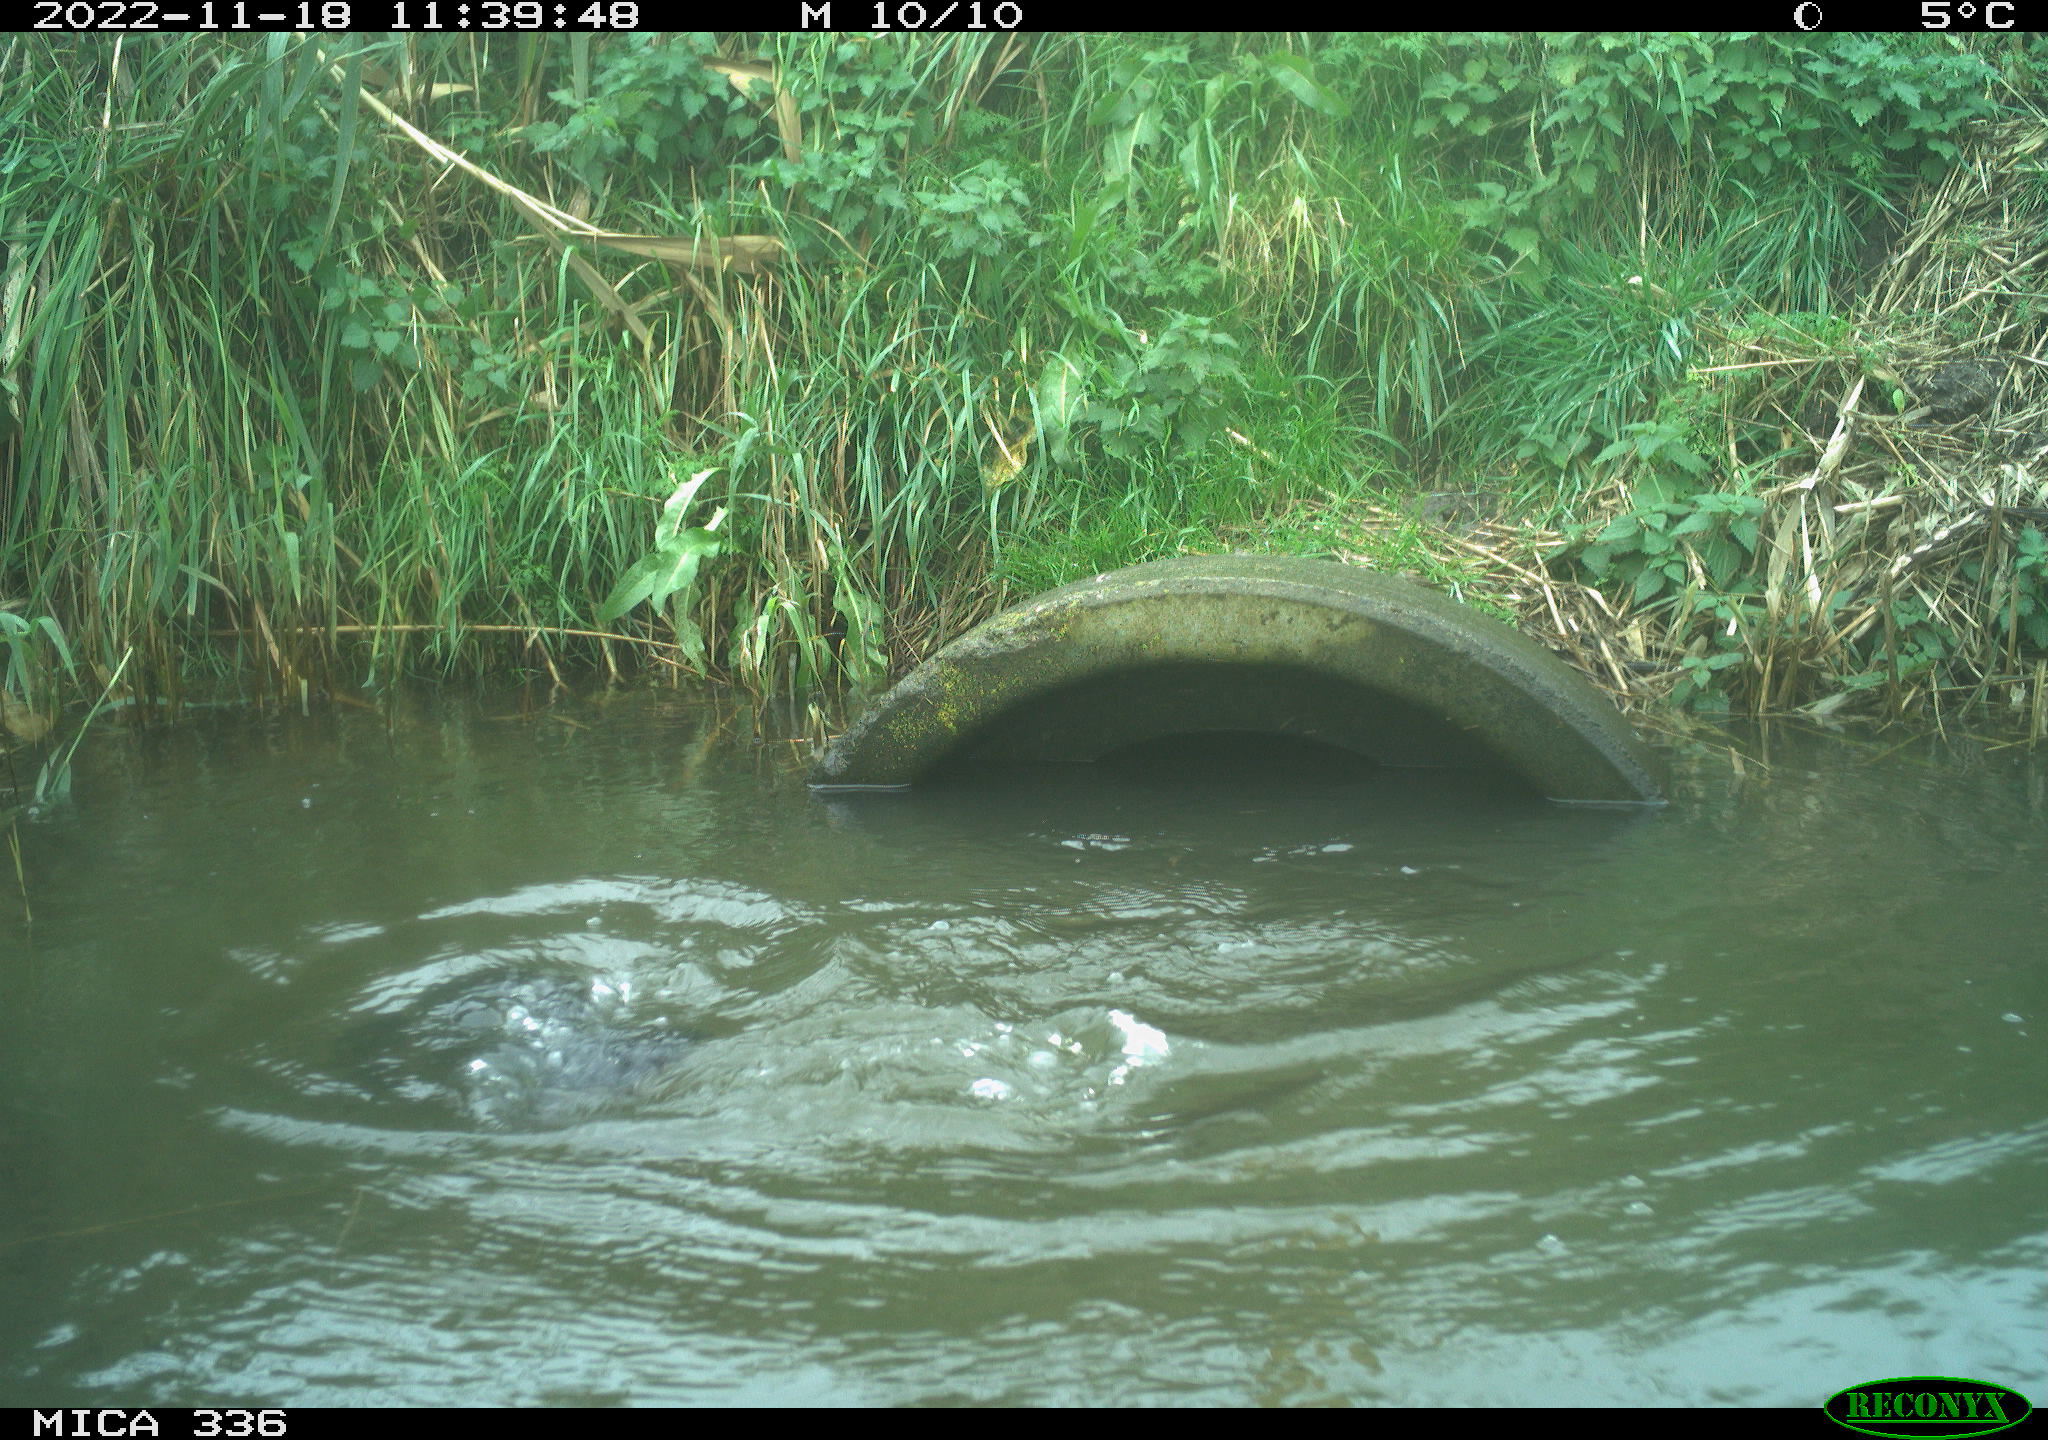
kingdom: Animalia
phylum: Chordata
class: Aves
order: Suliformes
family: Phalacrocoracidae
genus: Phalacrocorax
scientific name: Phalacrocorax carbo
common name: Great cormorant
